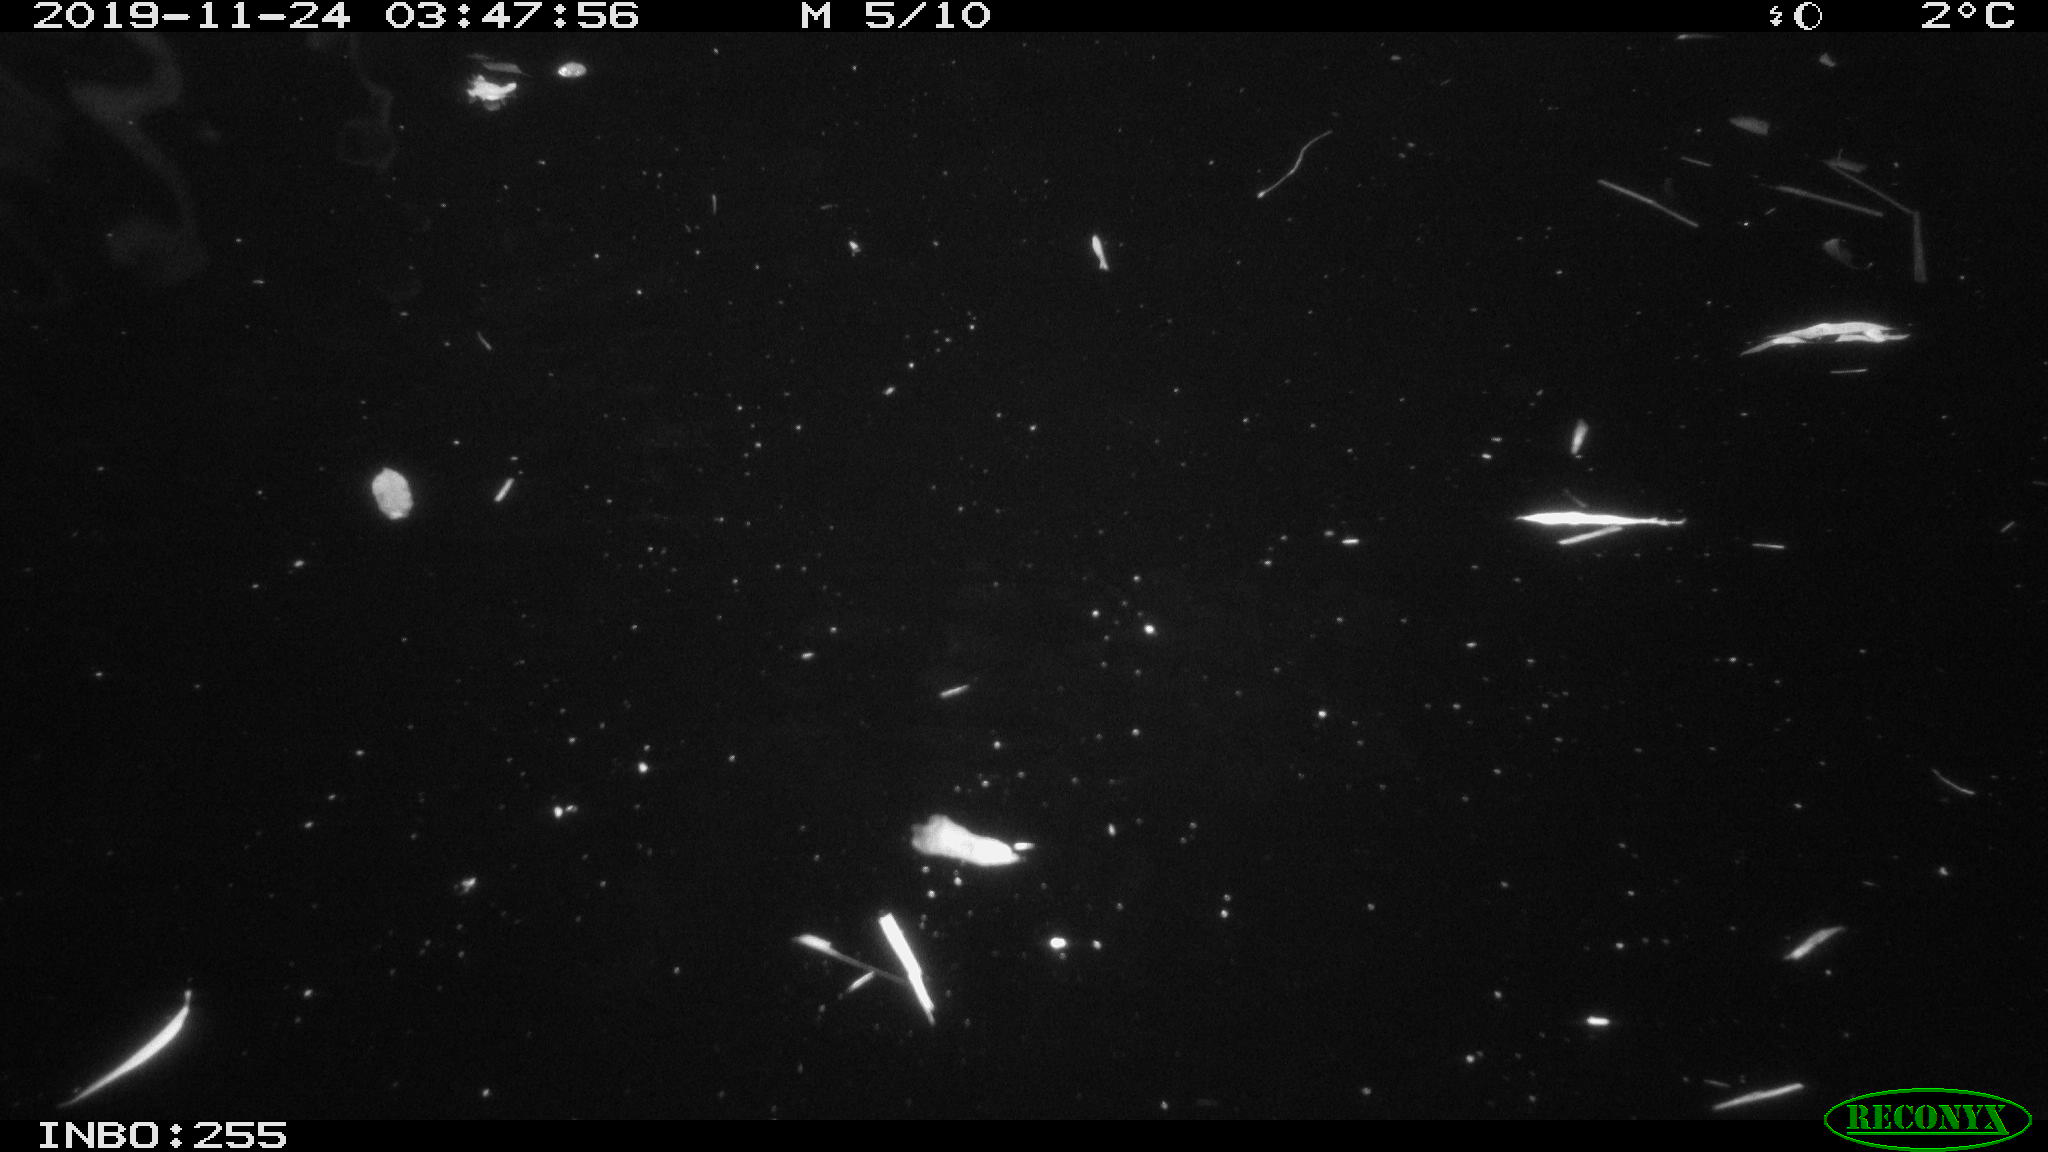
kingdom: Animalia
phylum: Chordata
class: Mammalia
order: Rodentia
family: Cricetidae
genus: Ondatra
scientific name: Ondatra zibethicus
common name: Muskrat
